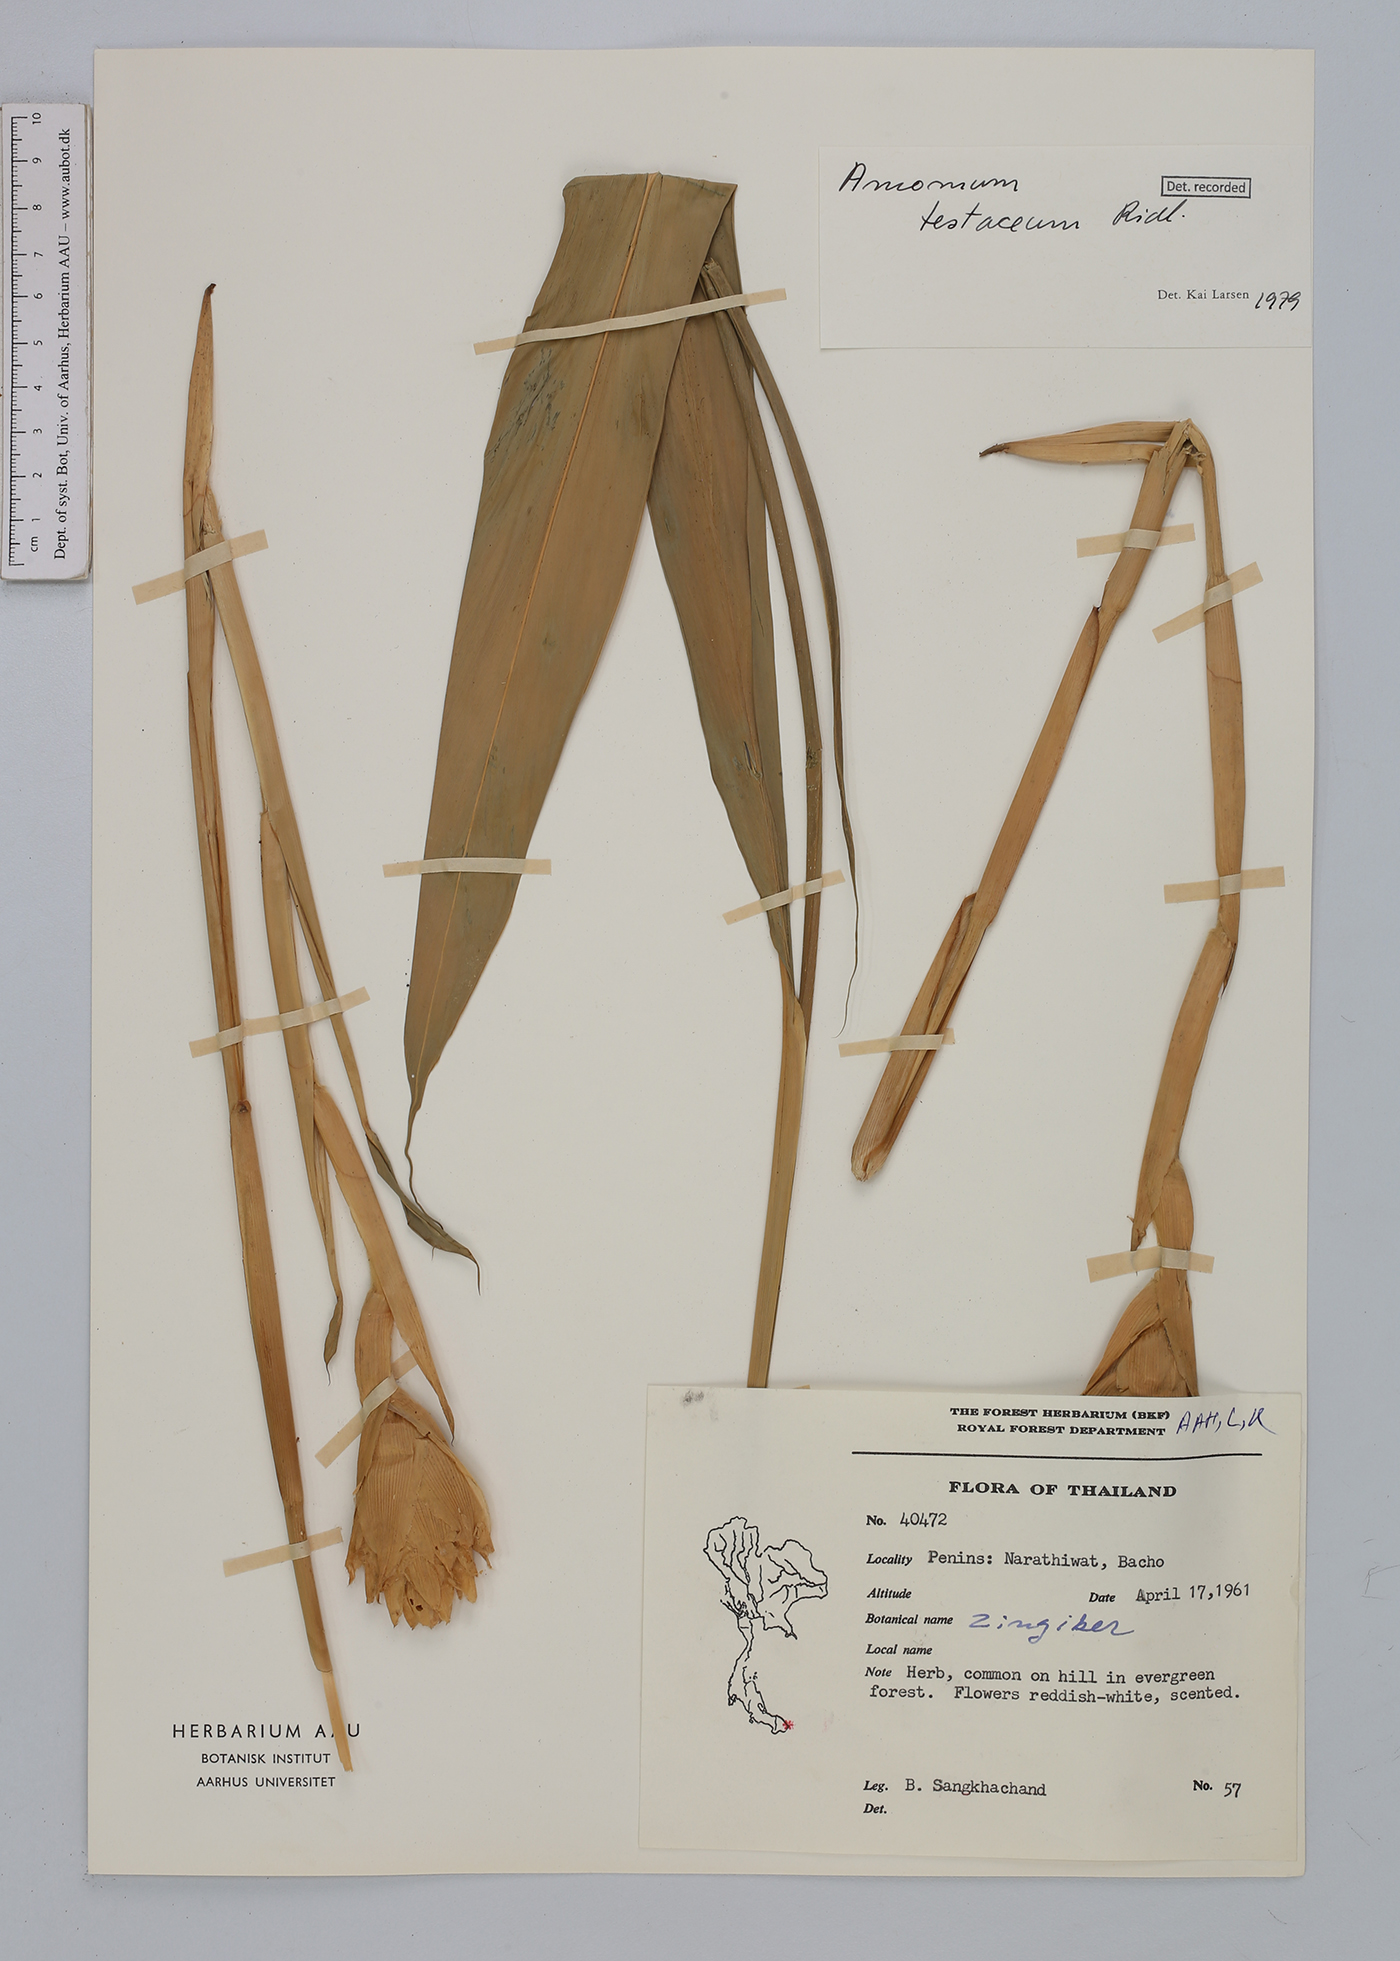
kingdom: Plantae
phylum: Tracheophyta
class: Liliopsida
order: Zingiberales
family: Zingiberaceae
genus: Wurfbainia
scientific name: Wurfbainia testacea
